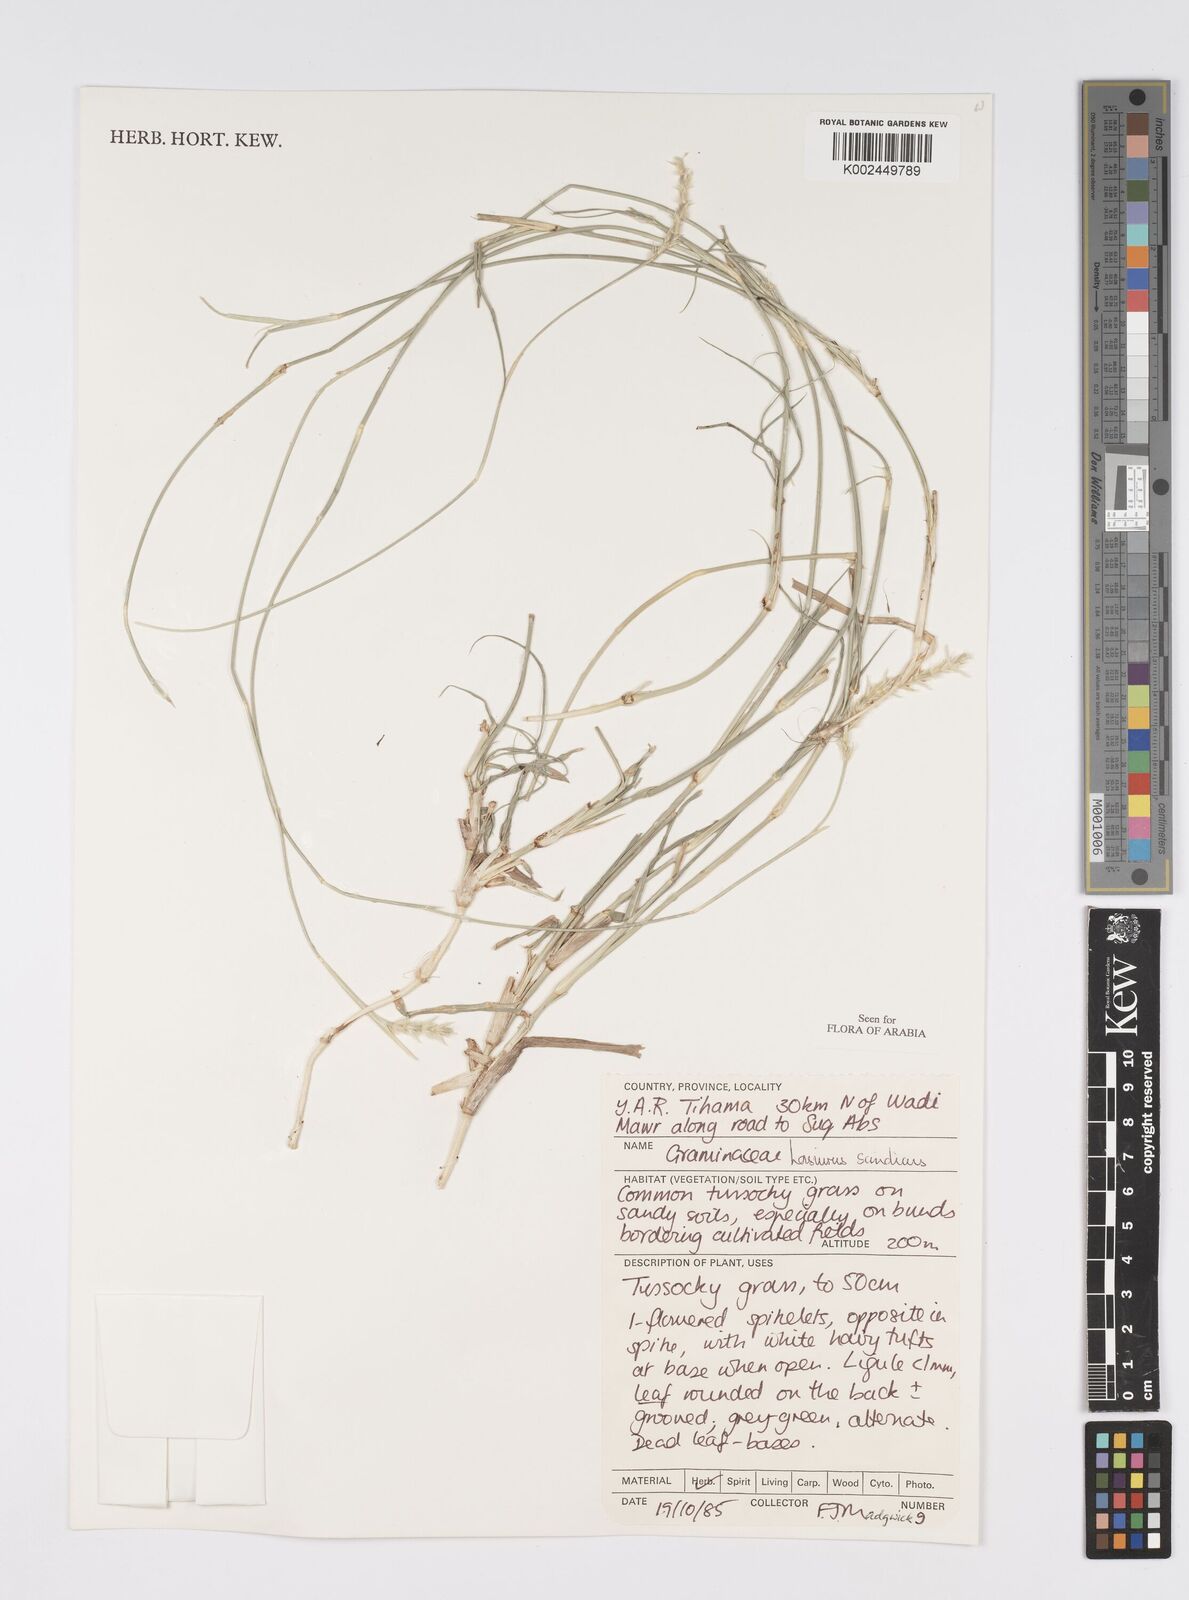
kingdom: Plantae
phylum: Tracheophyta
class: Liliopsida
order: Poales
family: Poaceae
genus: Lasiurus
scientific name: Lasiurus scindicus
